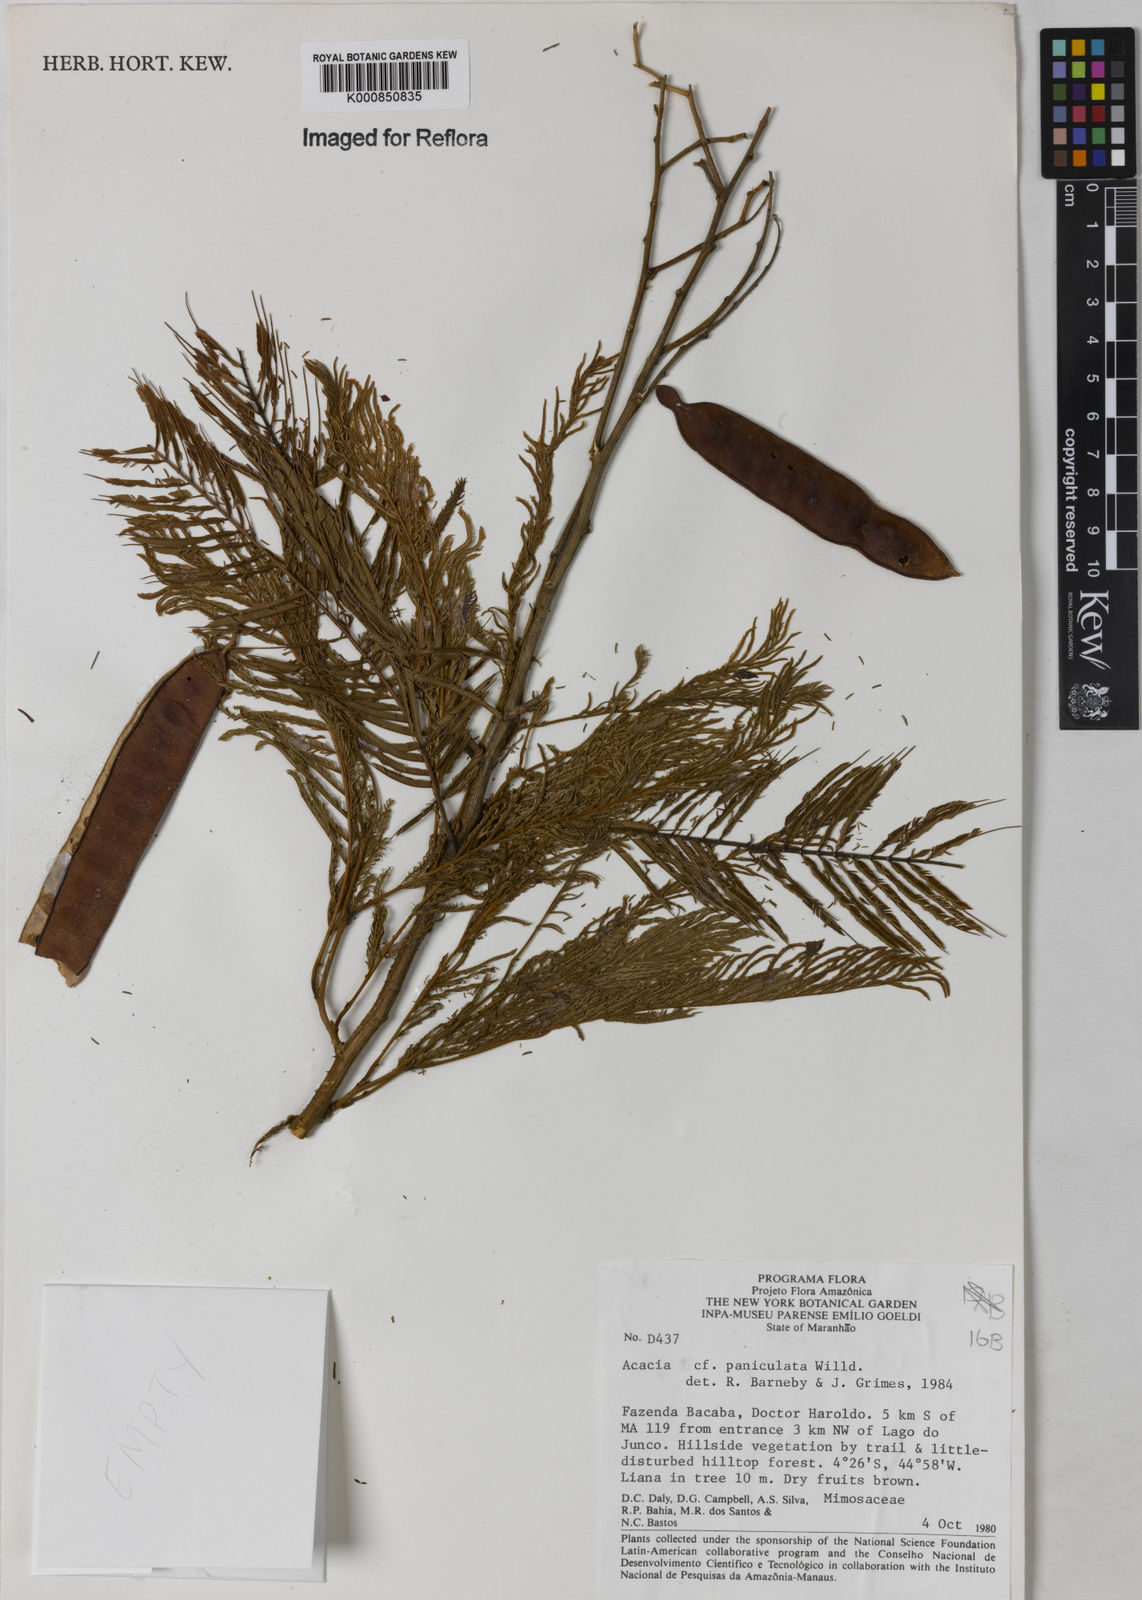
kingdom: Plantae
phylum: Tracheophyta
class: Magnoliopsida
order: Fabales
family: Fabaceae
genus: Senegalia
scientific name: Senegalia tenuifolia
